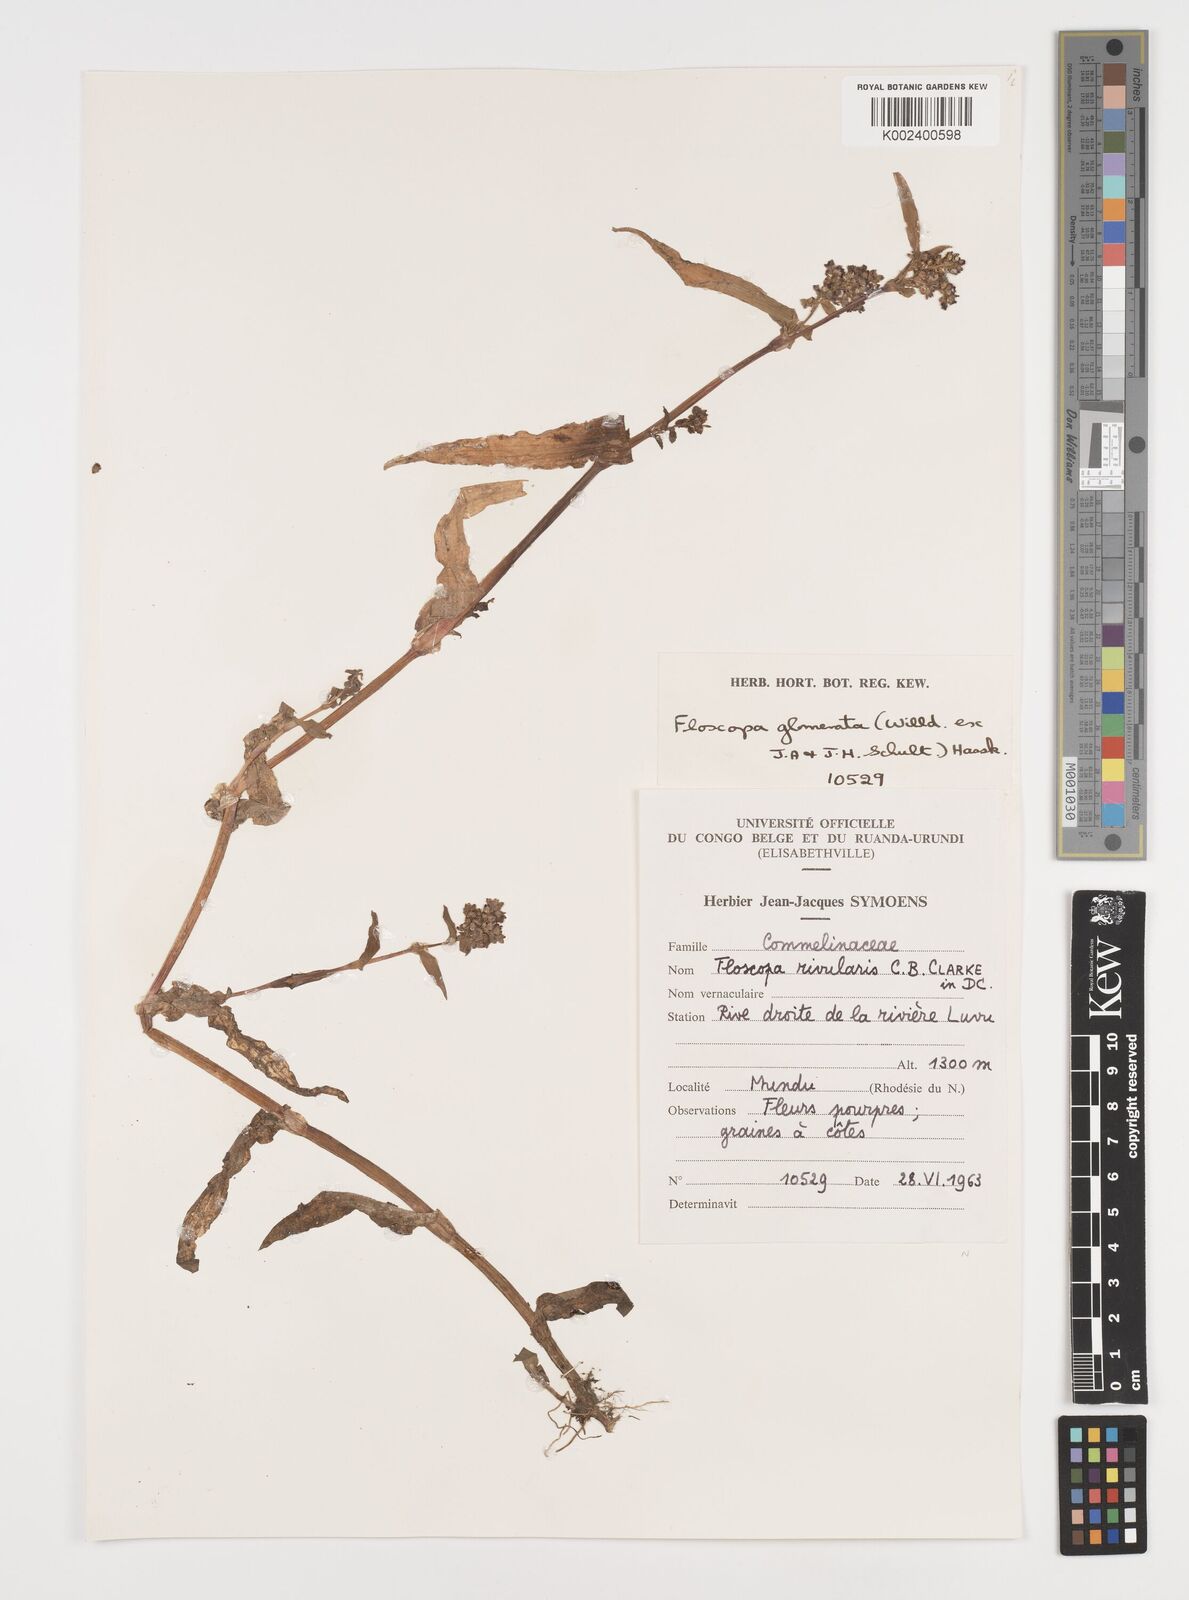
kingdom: Plantae
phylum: Tracheophyta
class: Liliopsida
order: Commelinales
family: Commelinaceae
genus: Floscopa
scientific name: Floscopa glomerata
